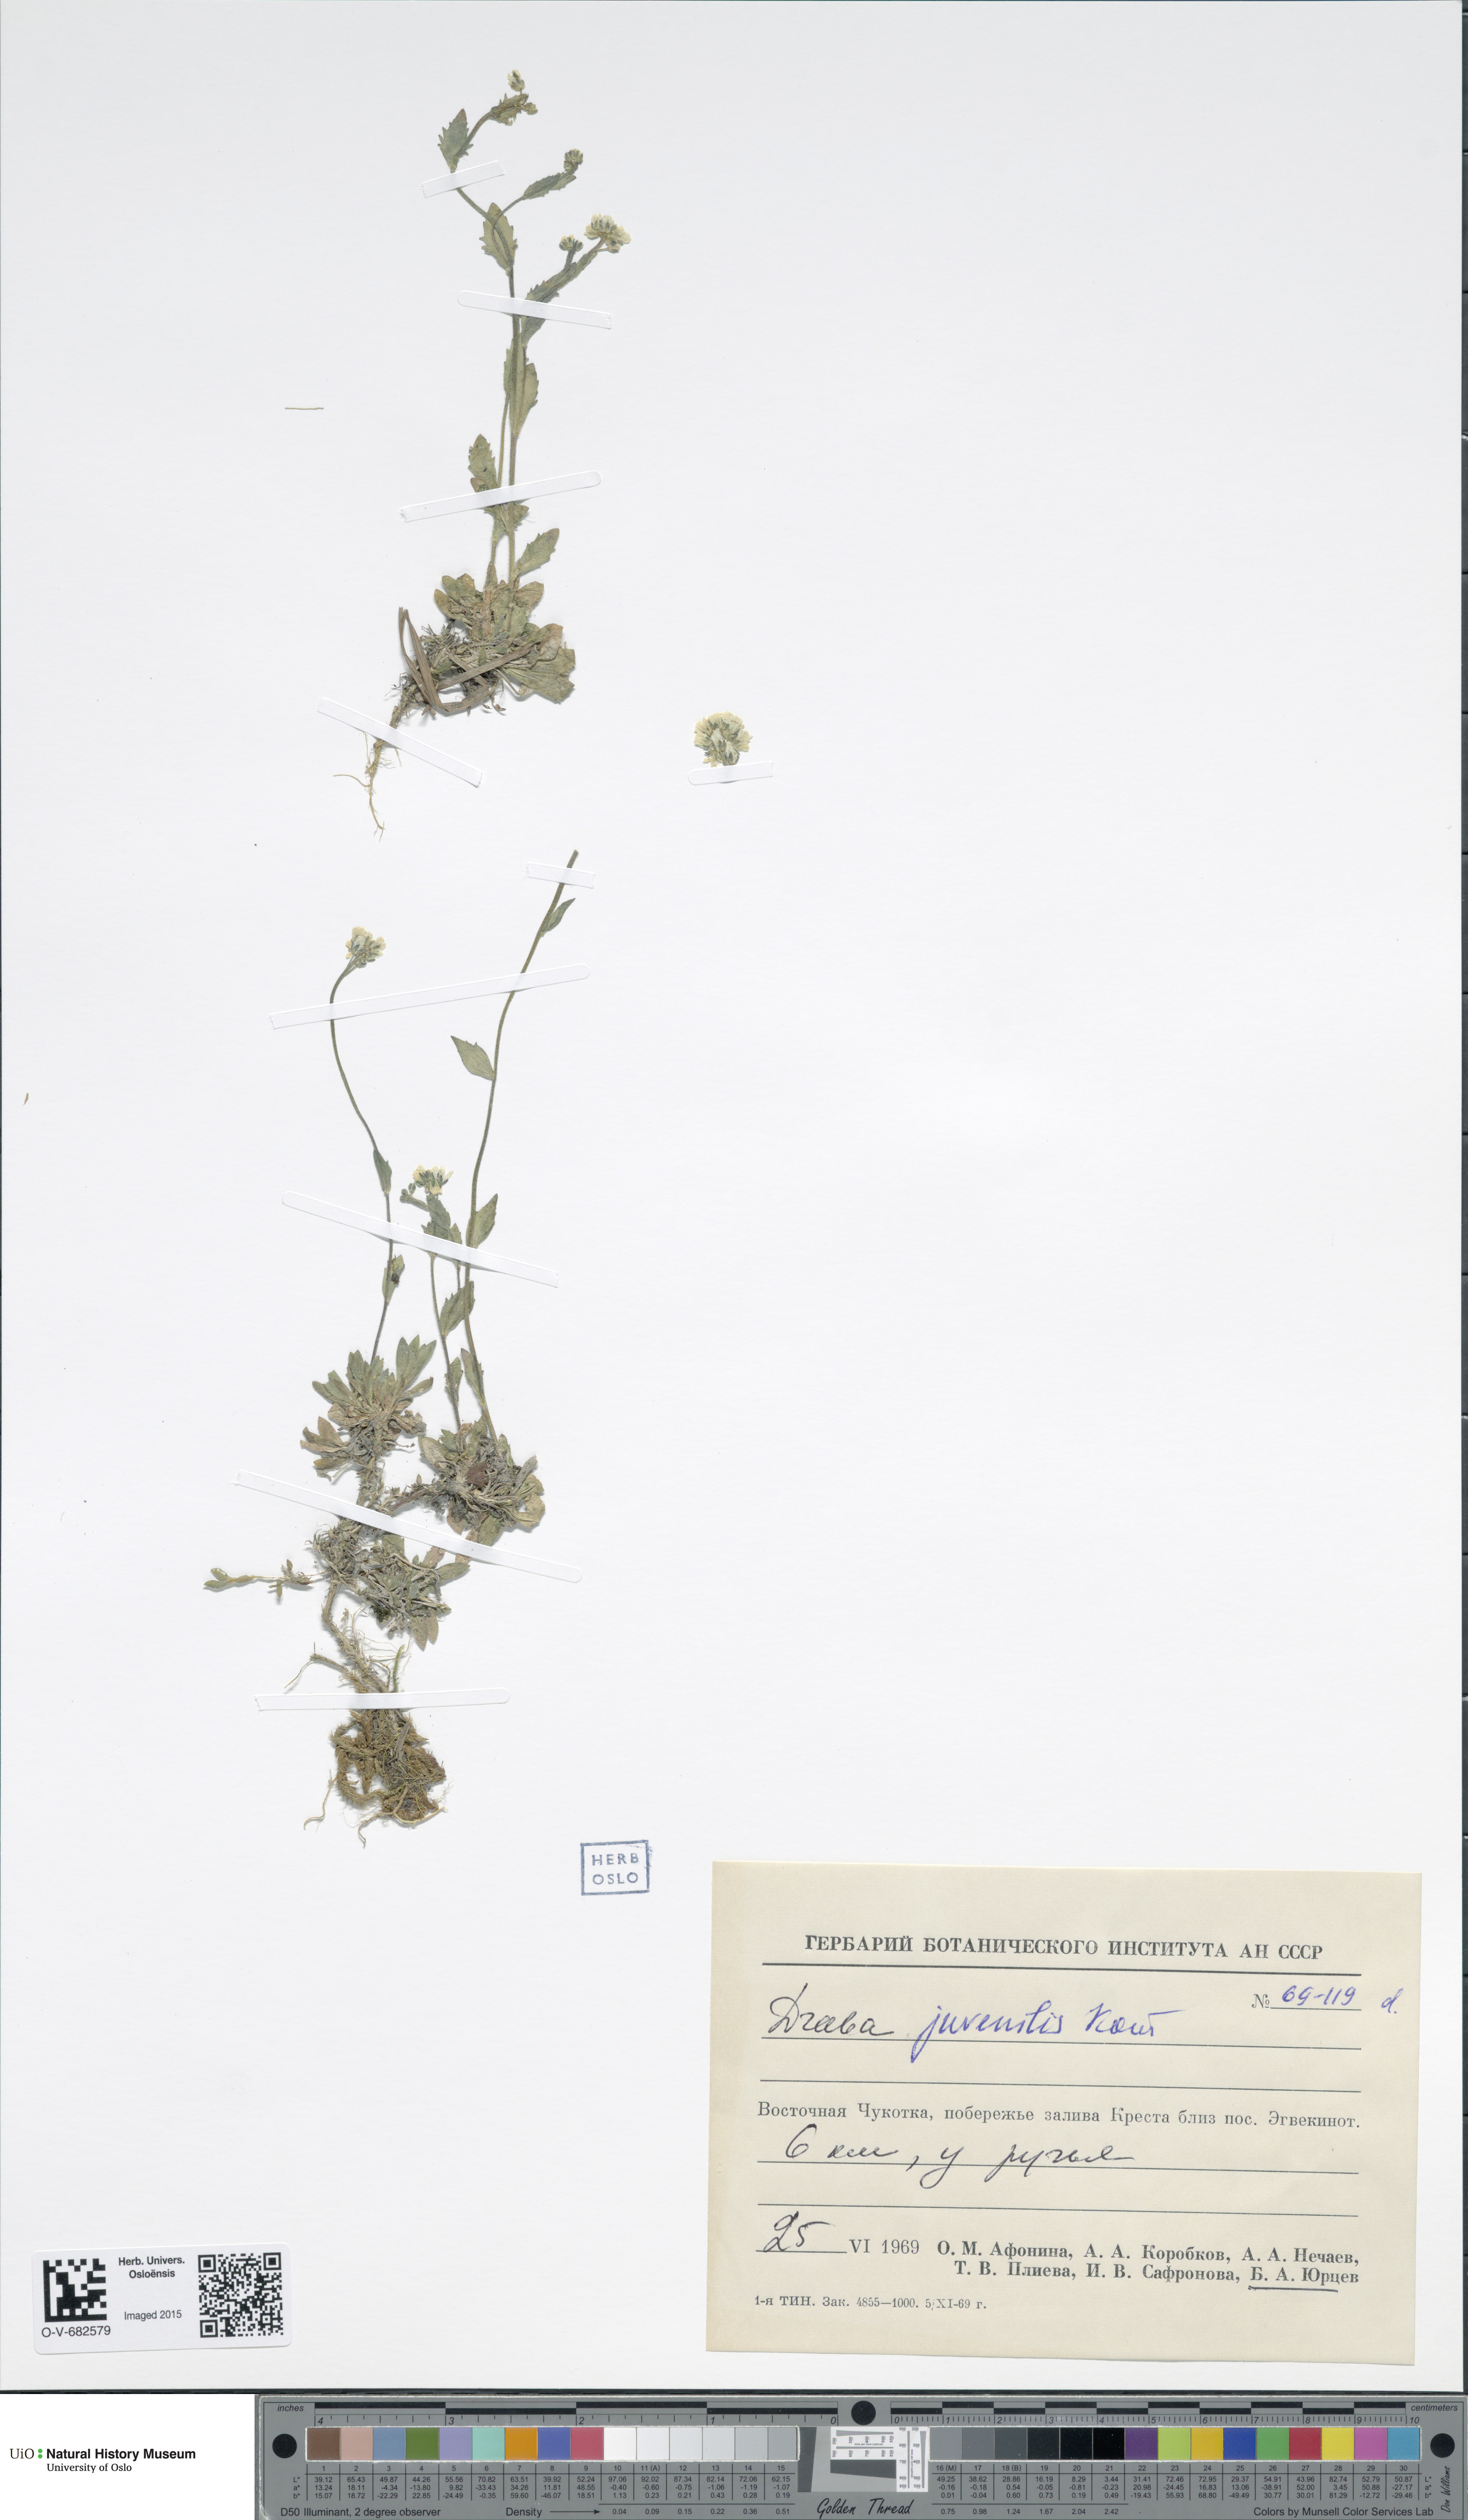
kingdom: Plantae
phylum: Tracheophyta
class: Magnoliopsida
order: Brassicales
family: Brassicaceae
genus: Draba
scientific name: Draba juvenilis
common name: Long-stalked draba
